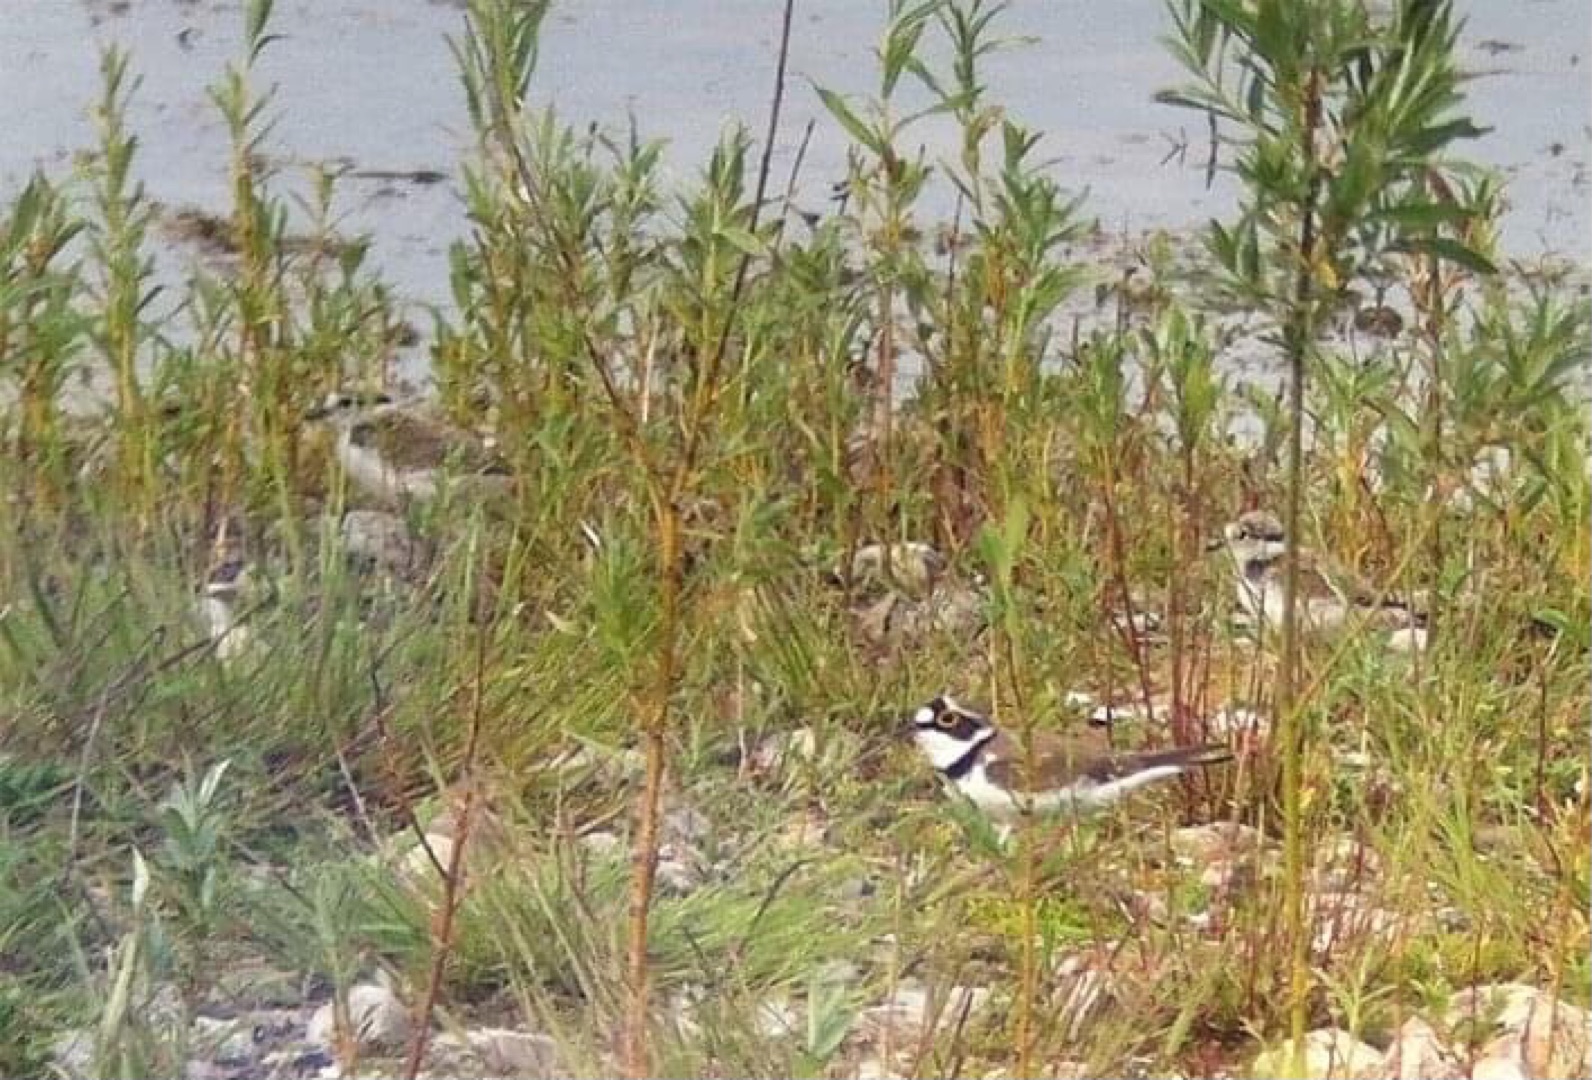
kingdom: Animalia
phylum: Chordata
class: Aves
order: Charadriiformes
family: Charadriidae
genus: Charadrius
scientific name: Charadrius dubius
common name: Lille præstekrave
